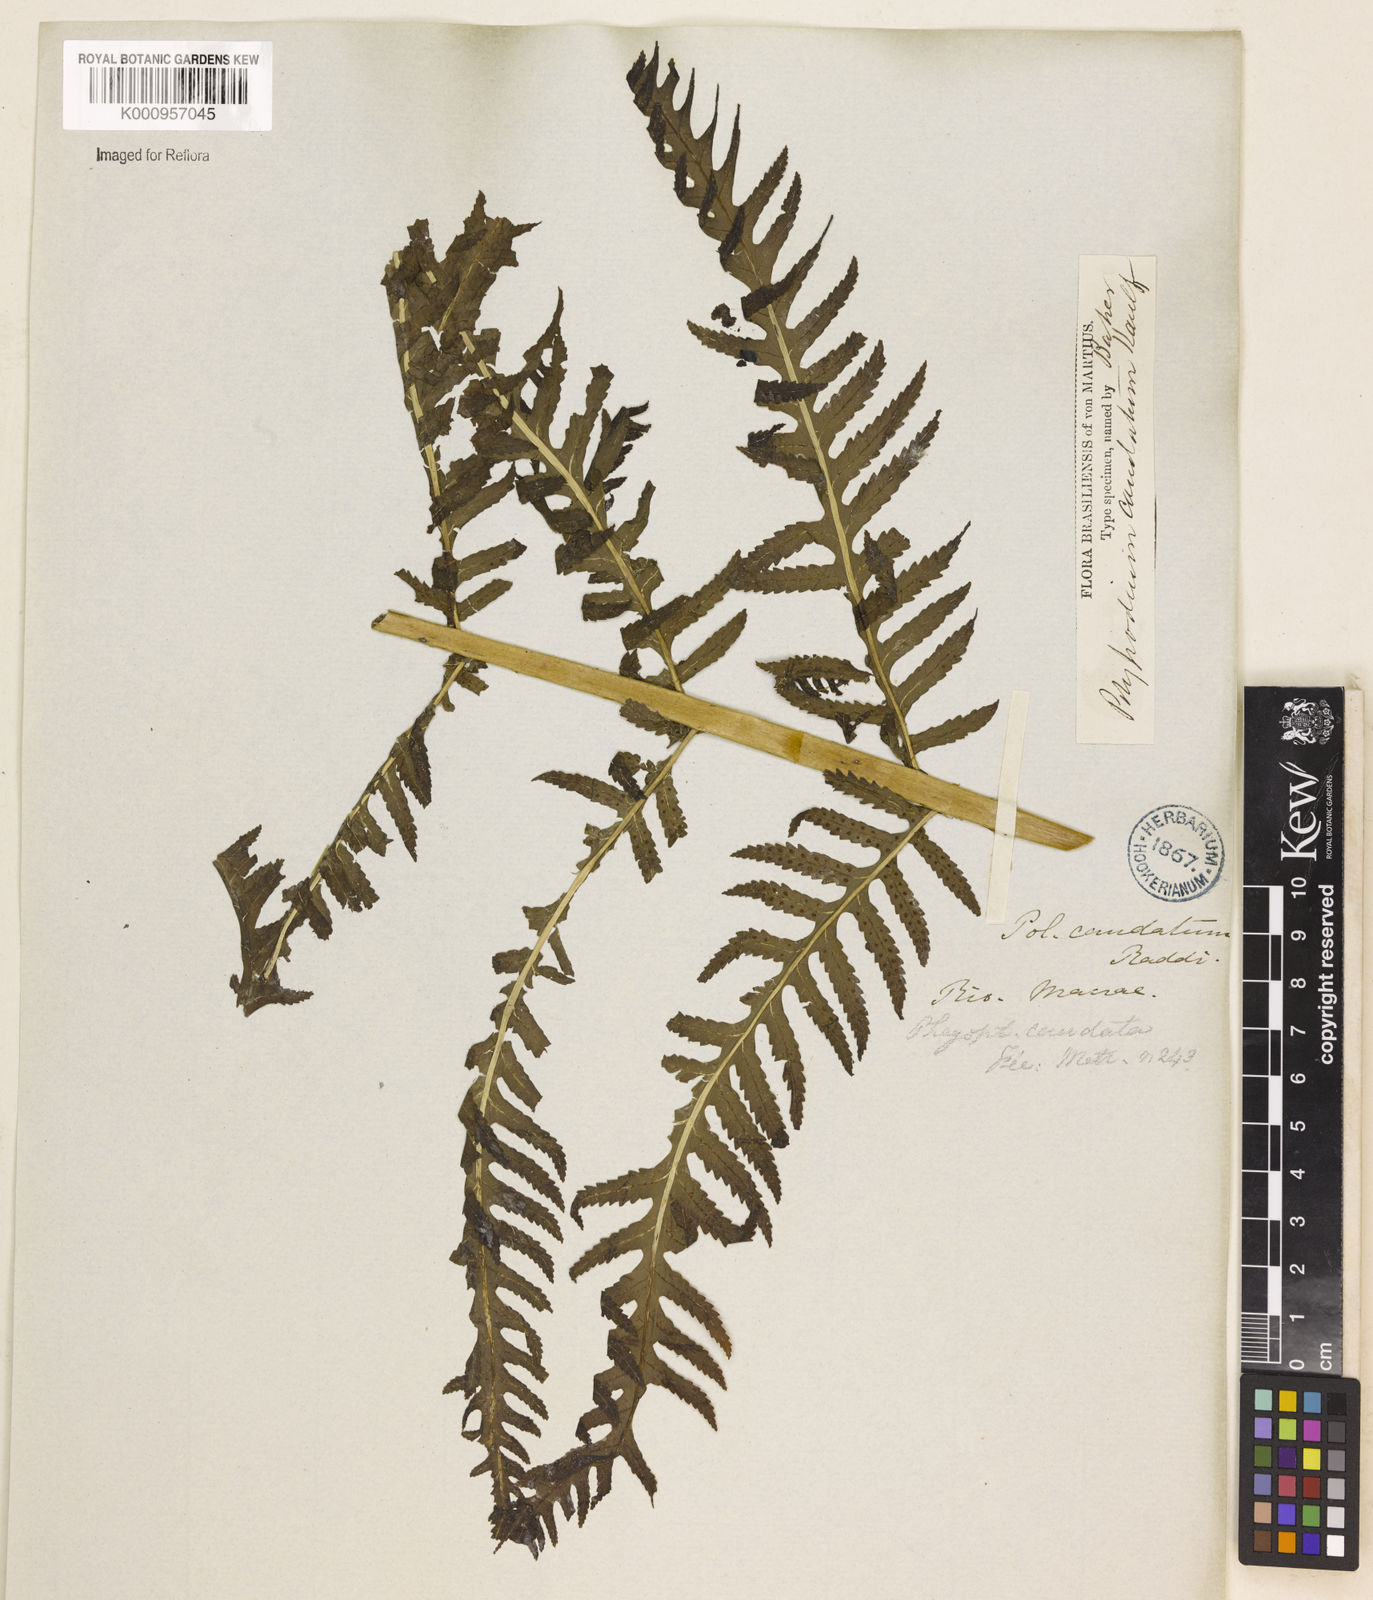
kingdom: Plantae
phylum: Tracheophyta
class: Polypodiopsida
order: Polypodiales
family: Dryopteridaceae
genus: Stigmatopteris
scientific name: Stigmatopteris caudata
